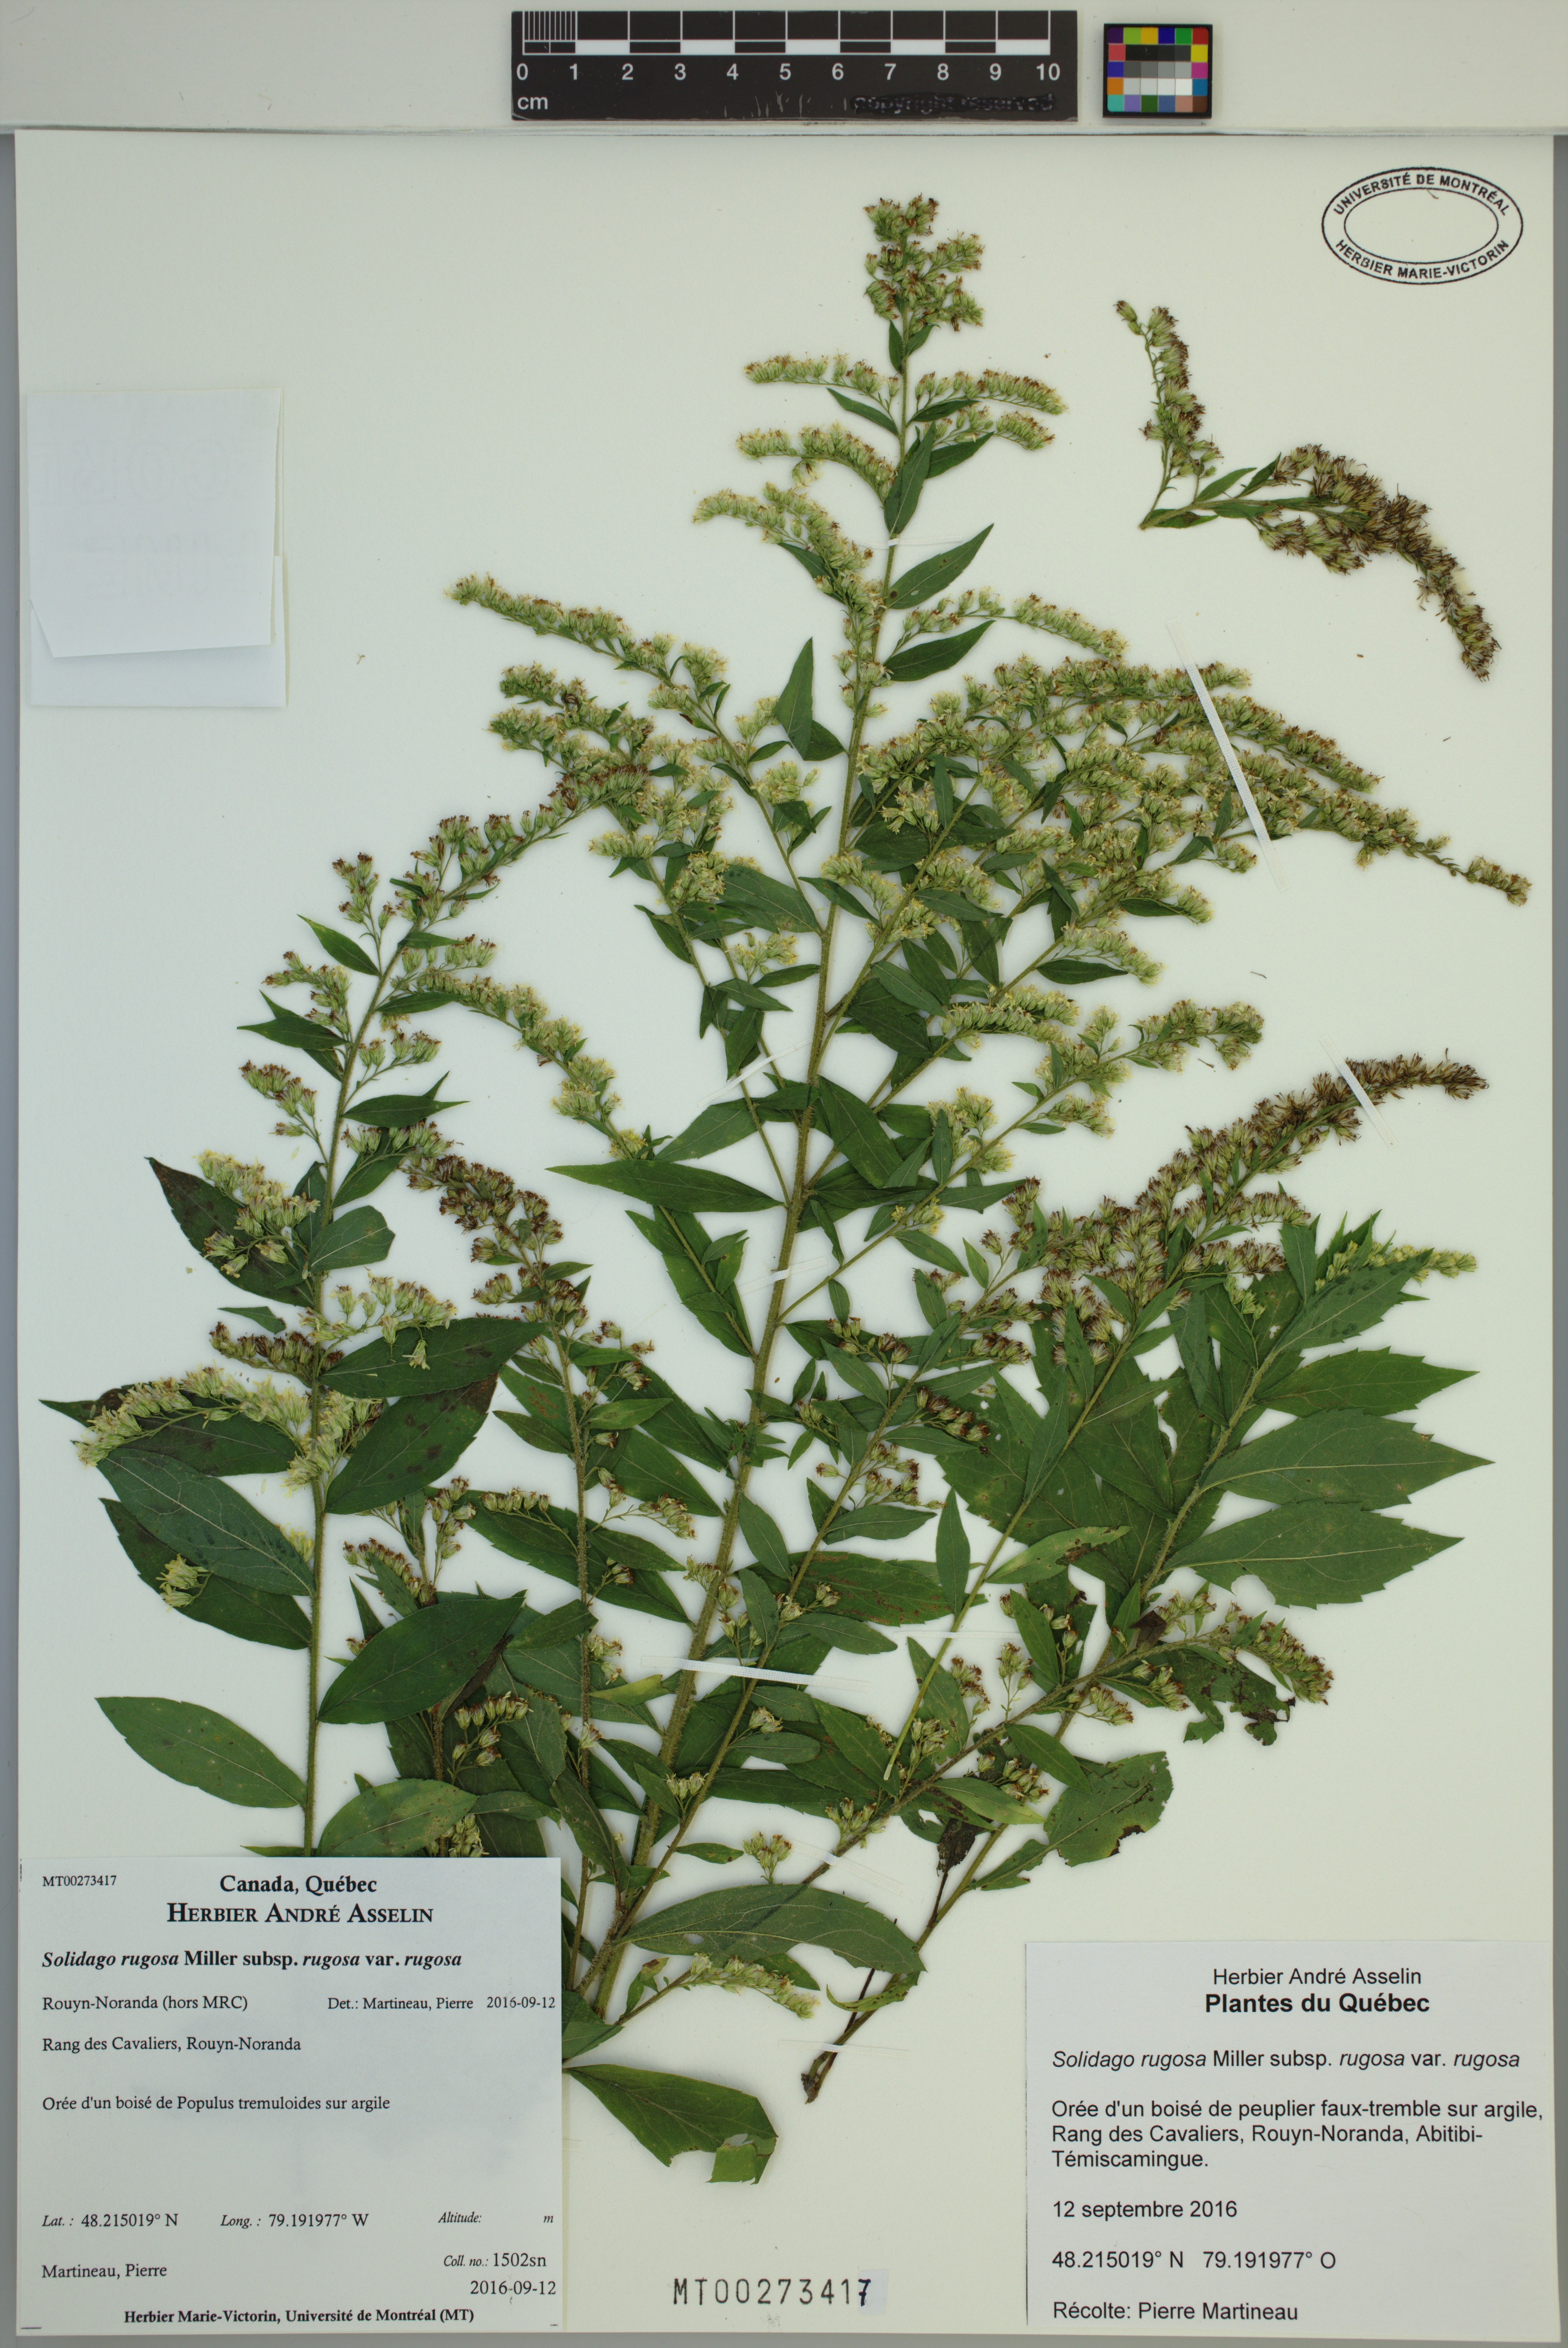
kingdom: Plantae
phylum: Tracheophyta
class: Magnoliopsida
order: Asterales
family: Asteraceae
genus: Solidago
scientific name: Solidago rugosa
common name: Rough-stemmed goldenrod
